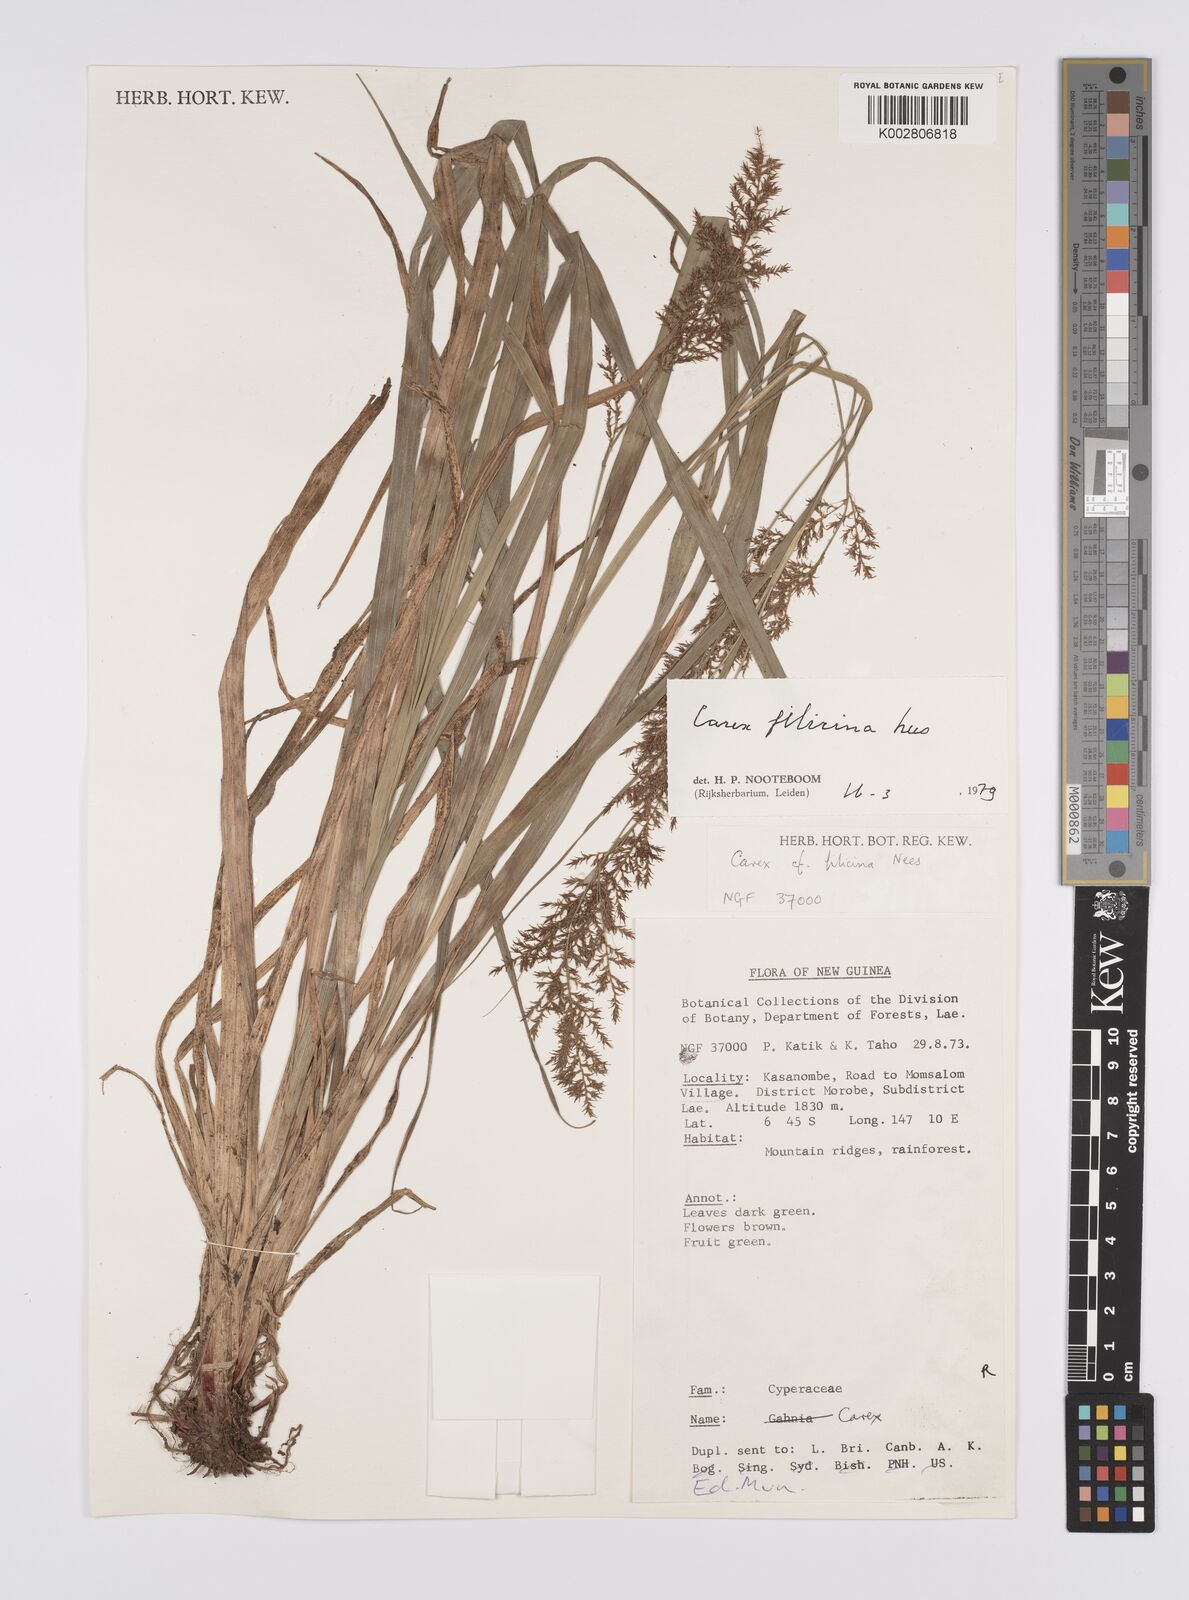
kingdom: Plantae
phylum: Tracheophyta
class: Liliopsida
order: Poales
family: Cyperaceae
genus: Carex
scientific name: Carex filicina
